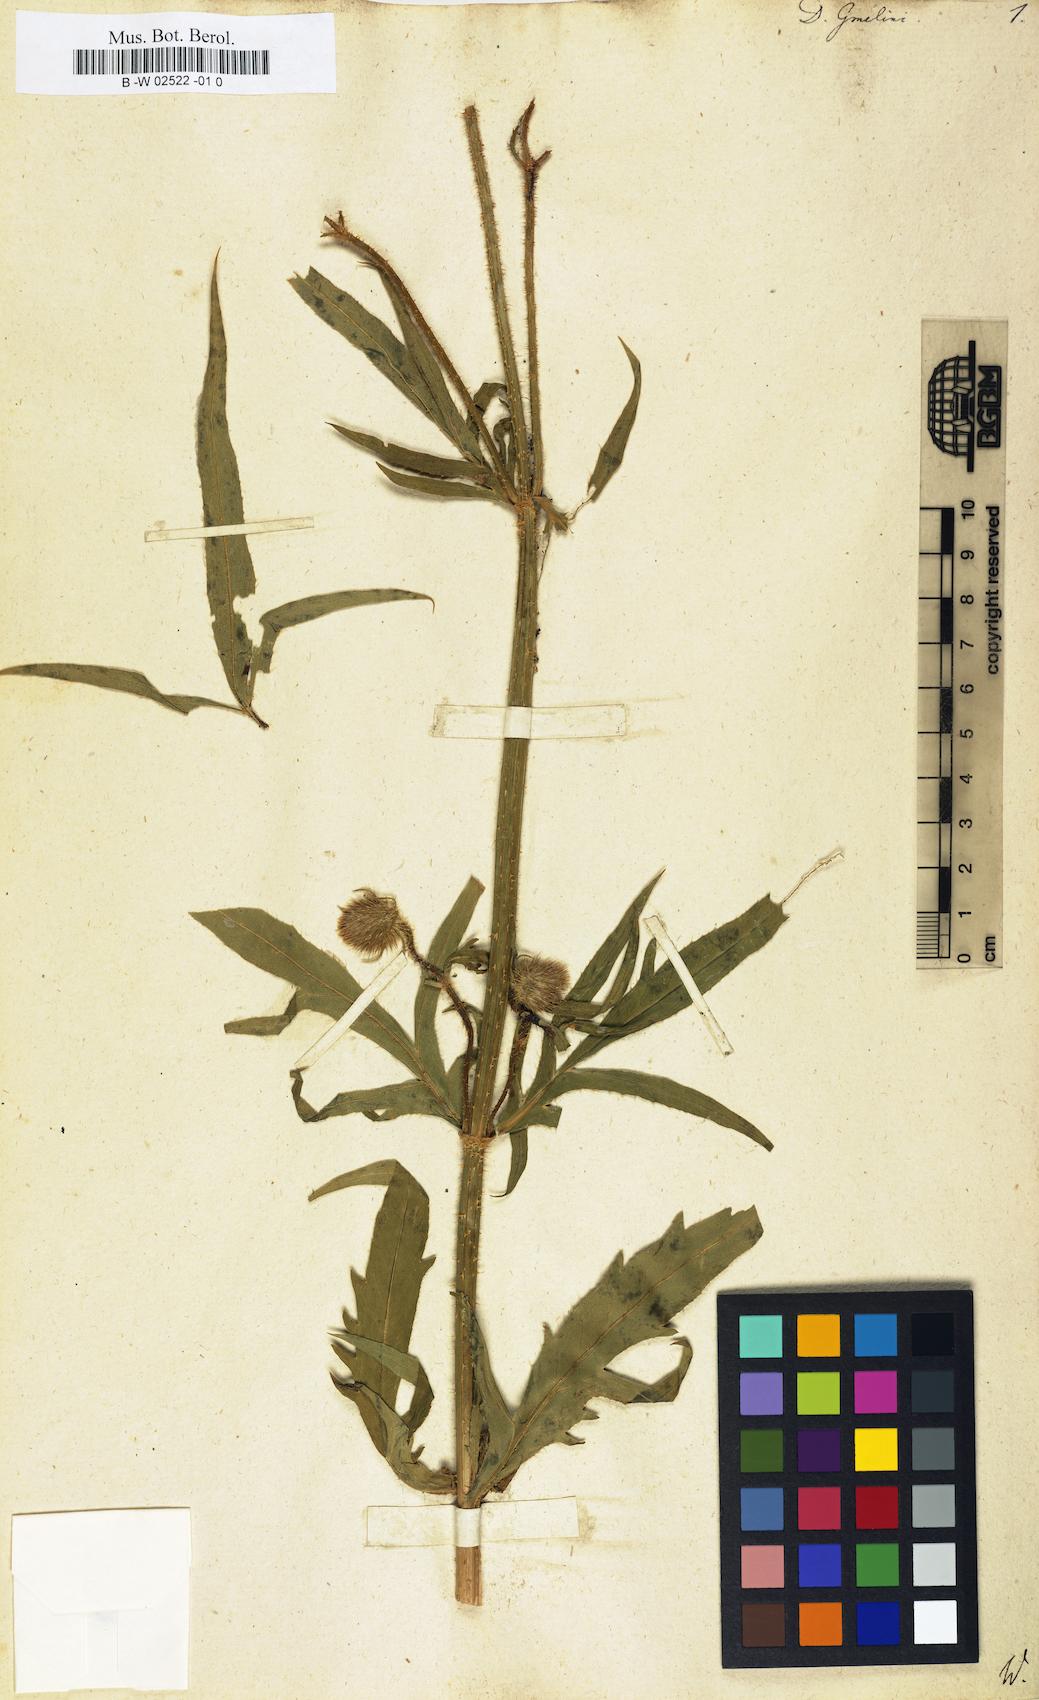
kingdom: Plantae
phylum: Tracheophyta
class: Magnoliopsida
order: Dipsacales
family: Caprifoliaceae
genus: Dipsacus
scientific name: Dipsacus strigosus
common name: Yellow-flowered teasel
